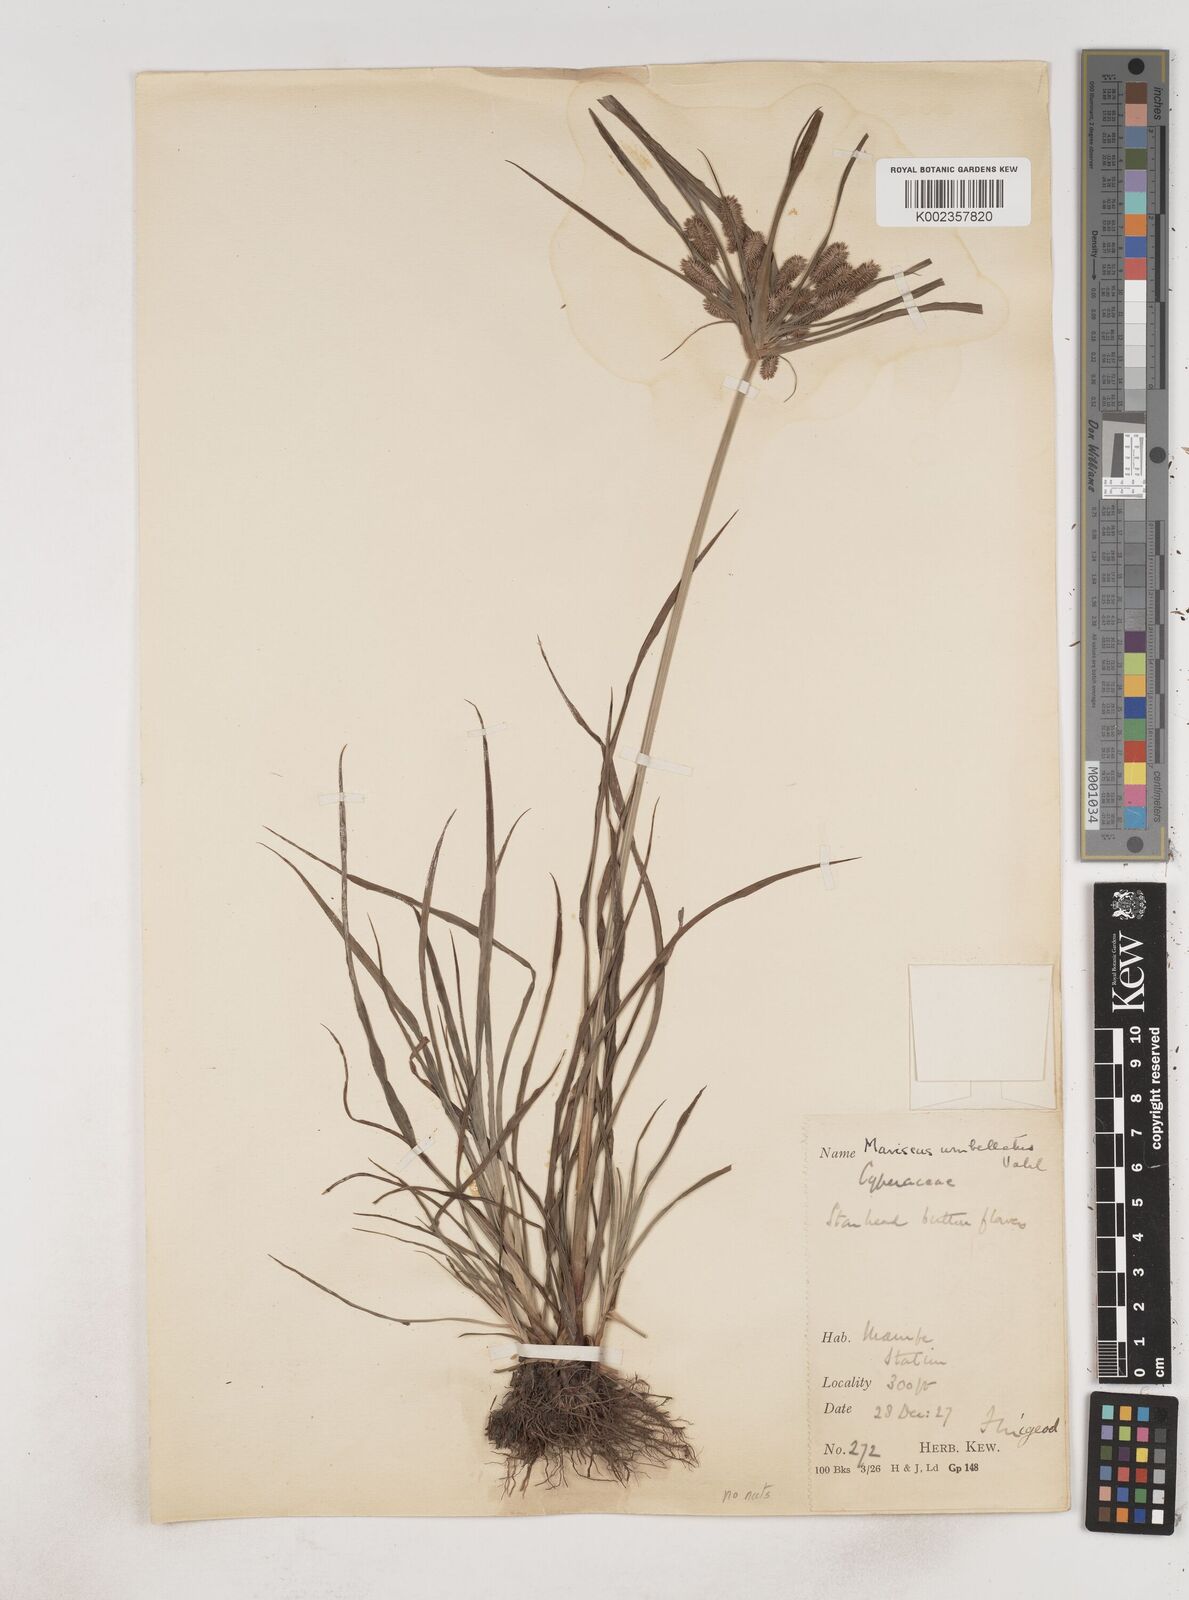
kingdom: Plantae
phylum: Tracheophyta
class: Liliopsida
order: Poales
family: Cyperaceae
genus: Cyperus
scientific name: Cyperus sublimis
